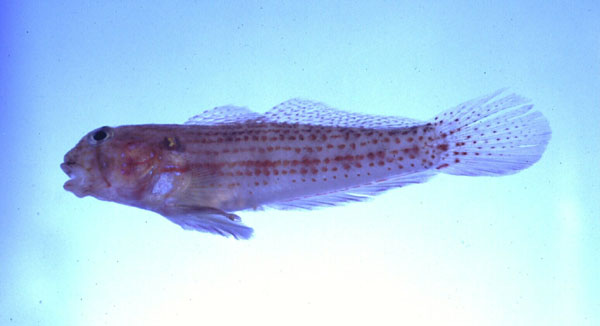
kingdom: Animalia
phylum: Chordata
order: Perciformes
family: Gobiidae
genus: Gnatholepis
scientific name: Gnatholepis cauerensis
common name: Bridled goby
